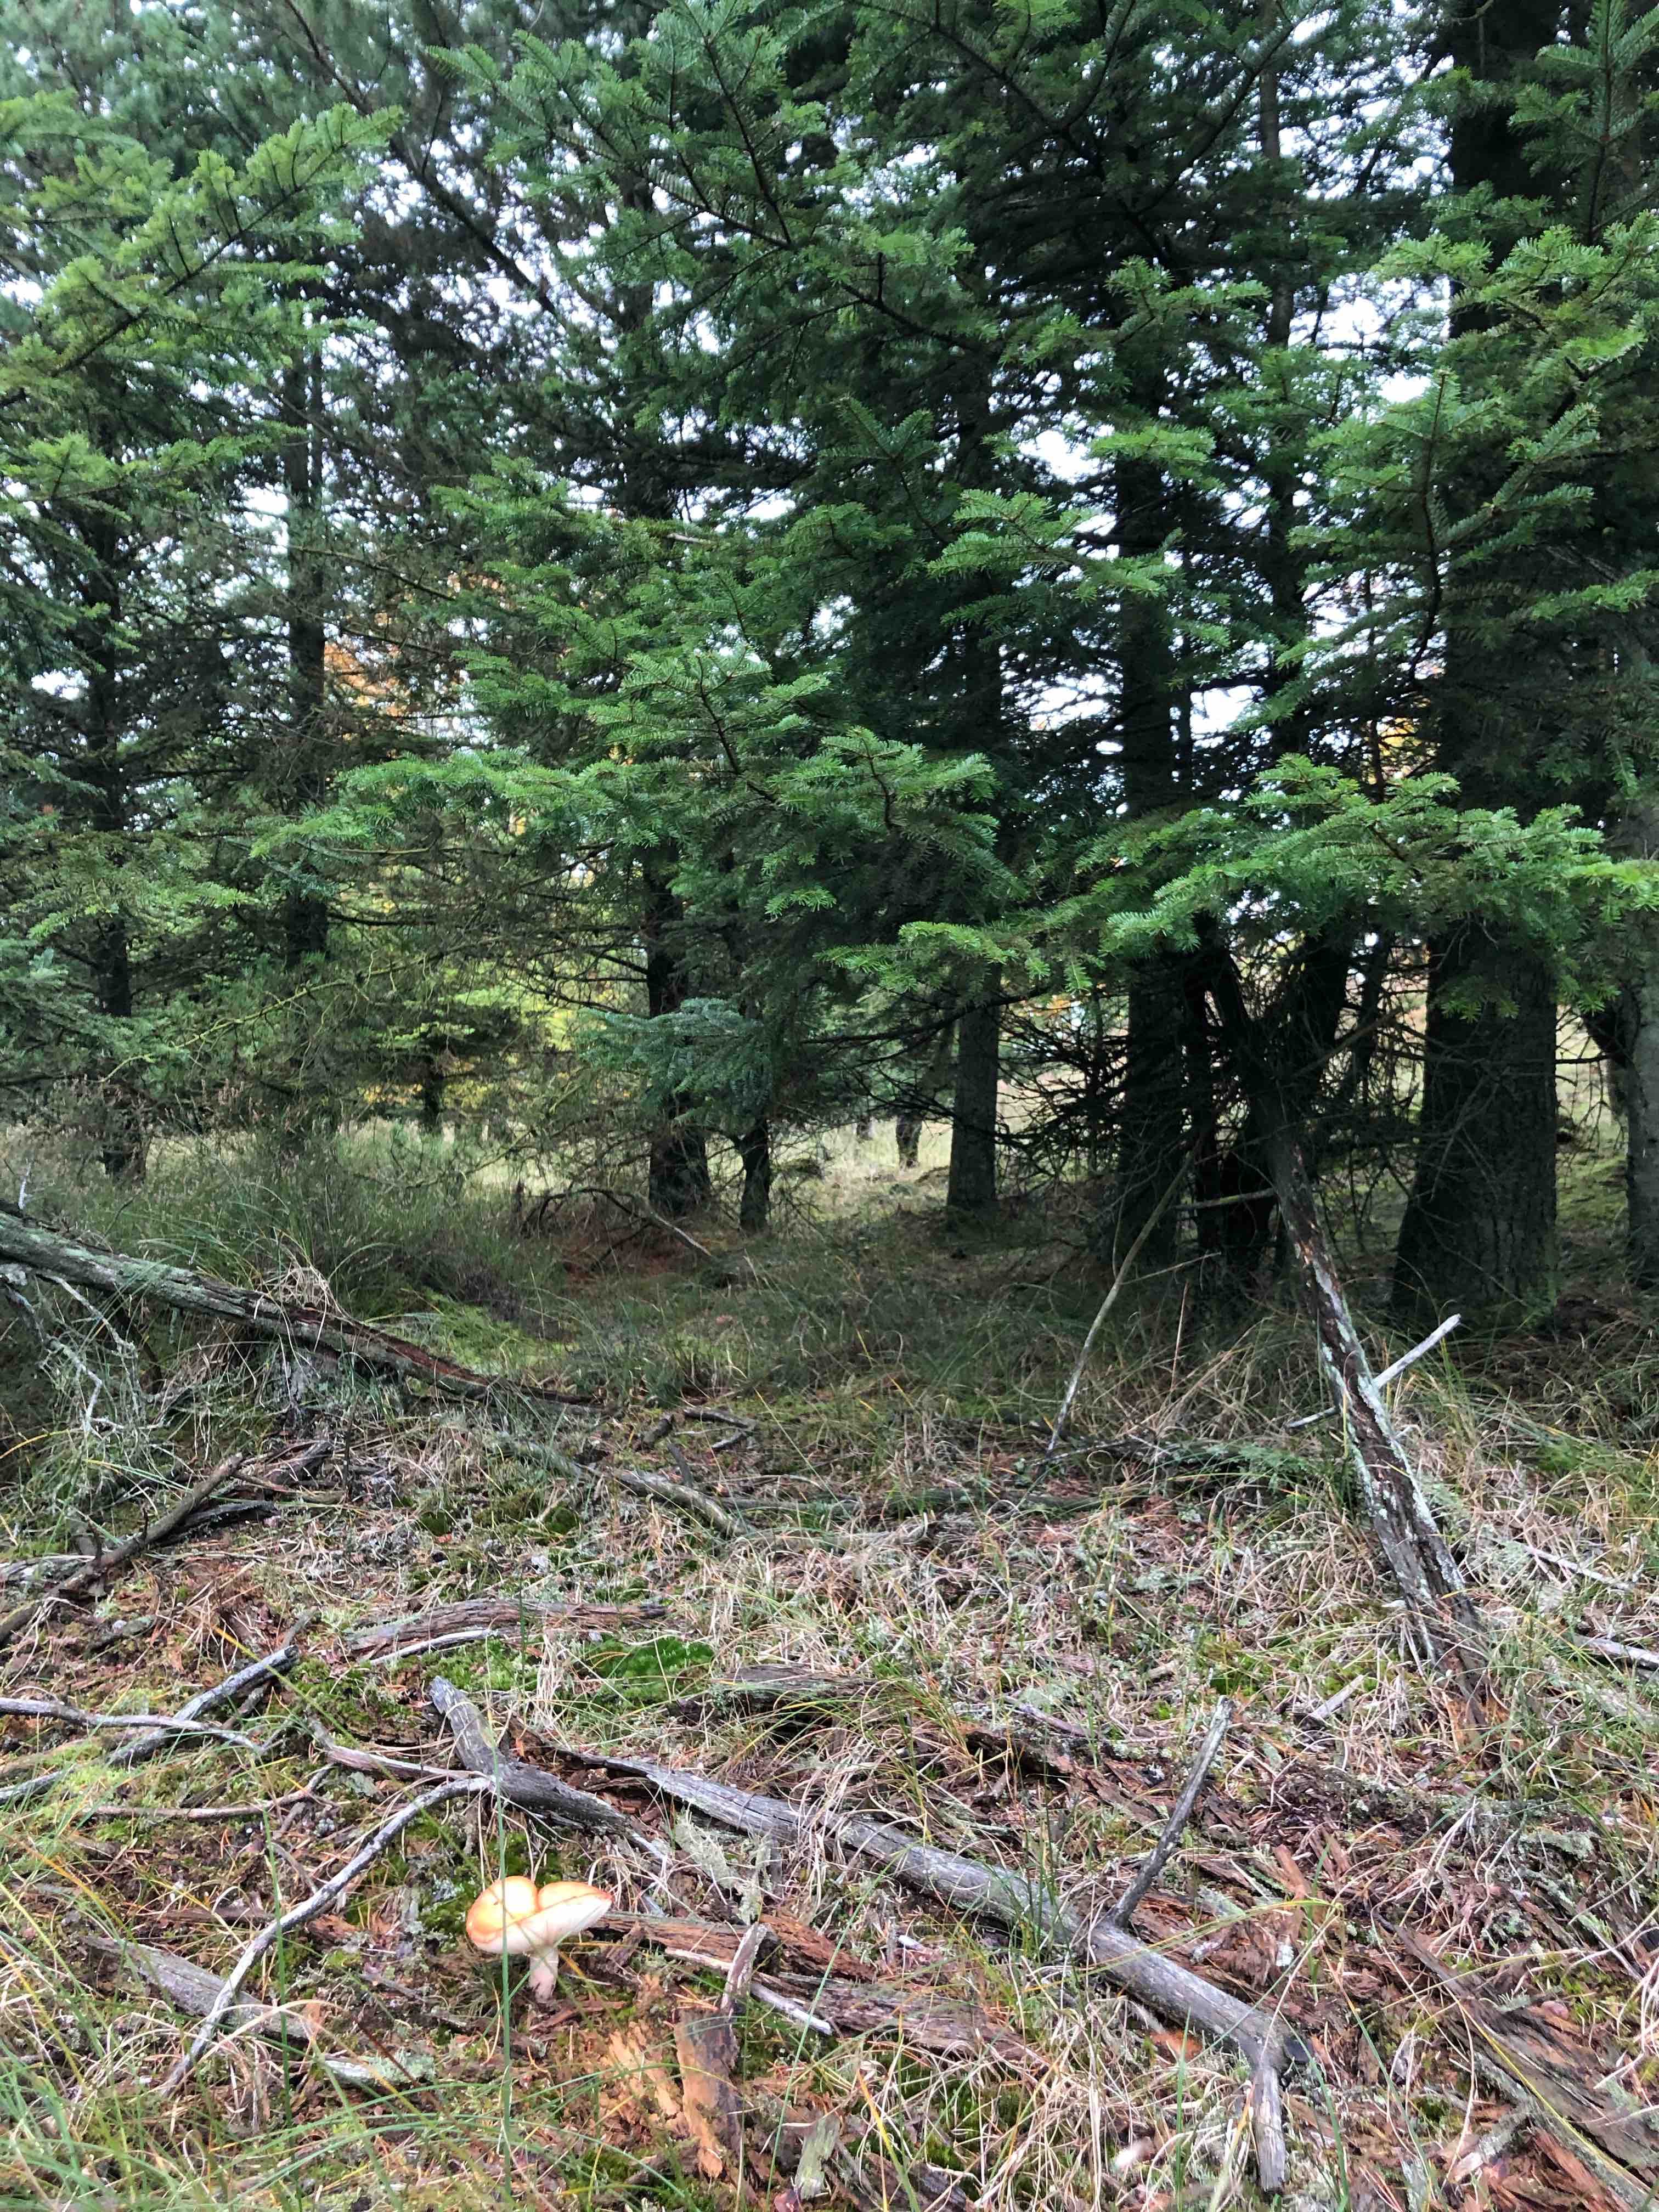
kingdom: Fungi
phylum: Basidiomycota
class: Agaricomycetes
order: Russulales
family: Russulaceae
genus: Russula
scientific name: Russula paludosa
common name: prægtig skørhat
